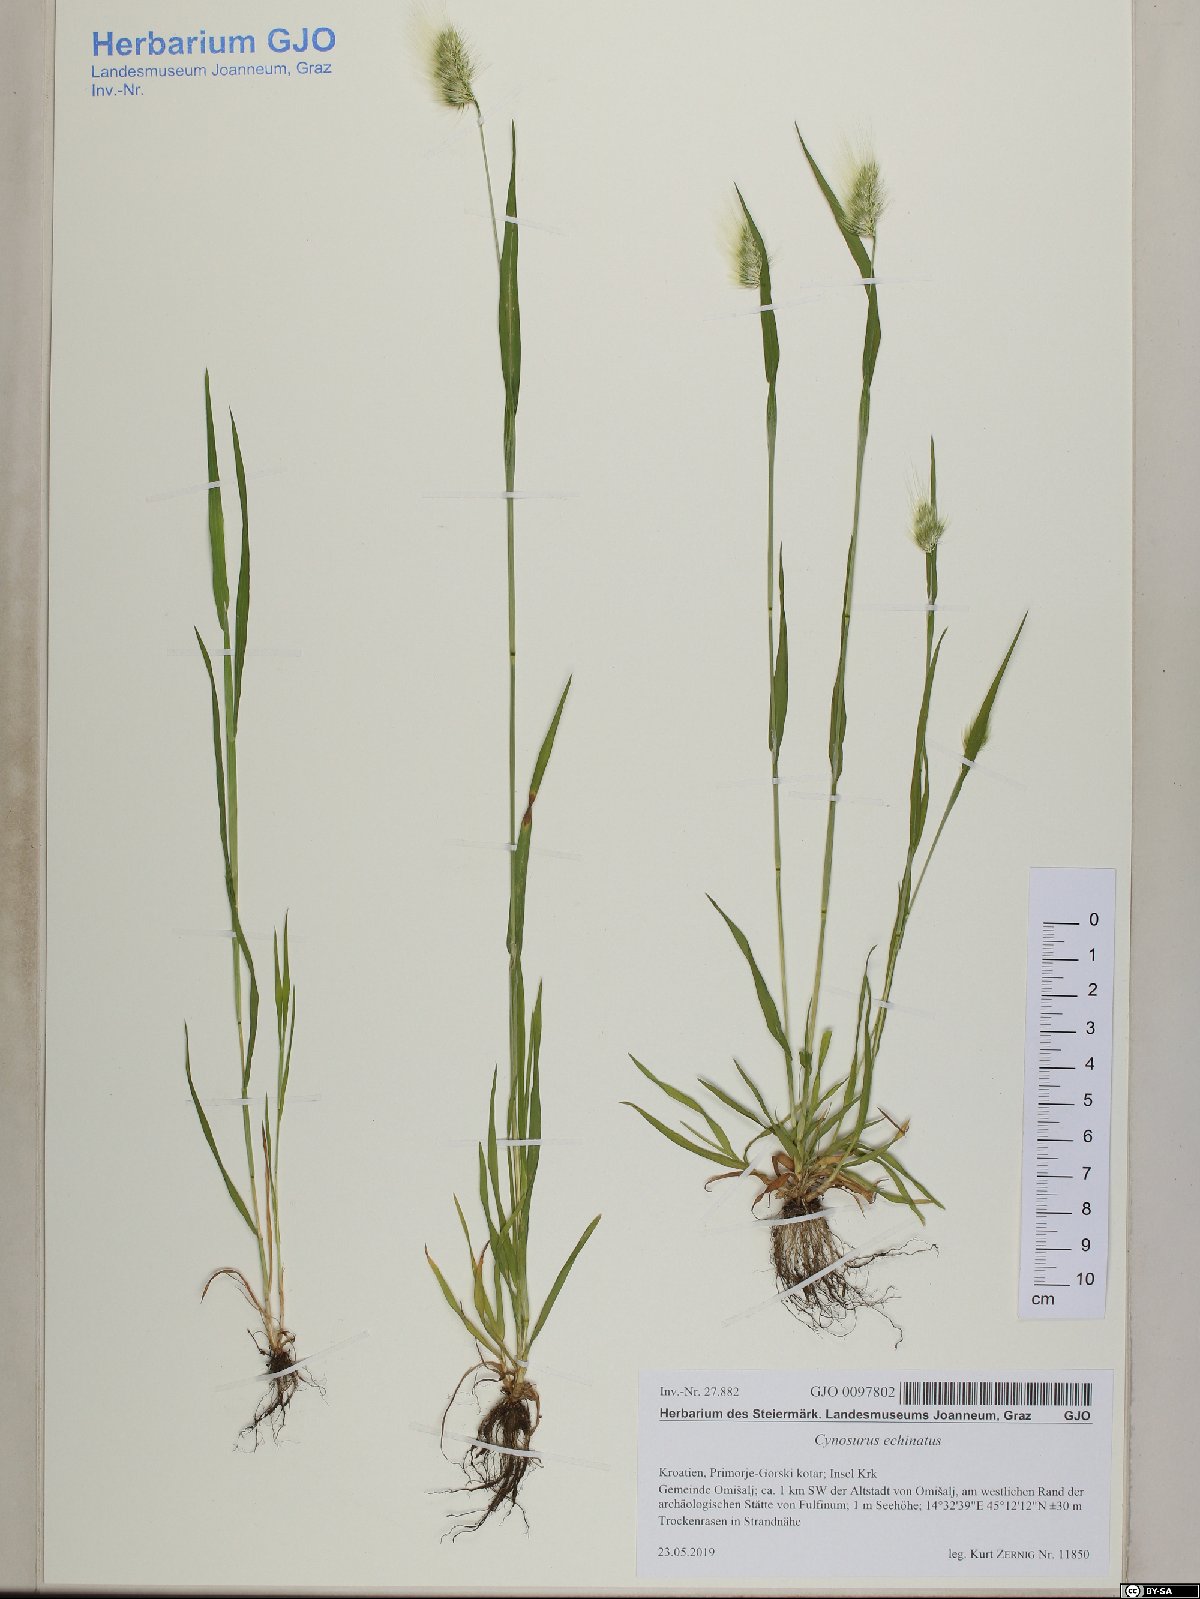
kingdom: Plantae
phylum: Tracheophyta
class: Liliopsida
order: Poales
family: Poaceae
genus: Cynosurus
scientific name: Cynosurus echinatus
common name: Rough dog's-tail
